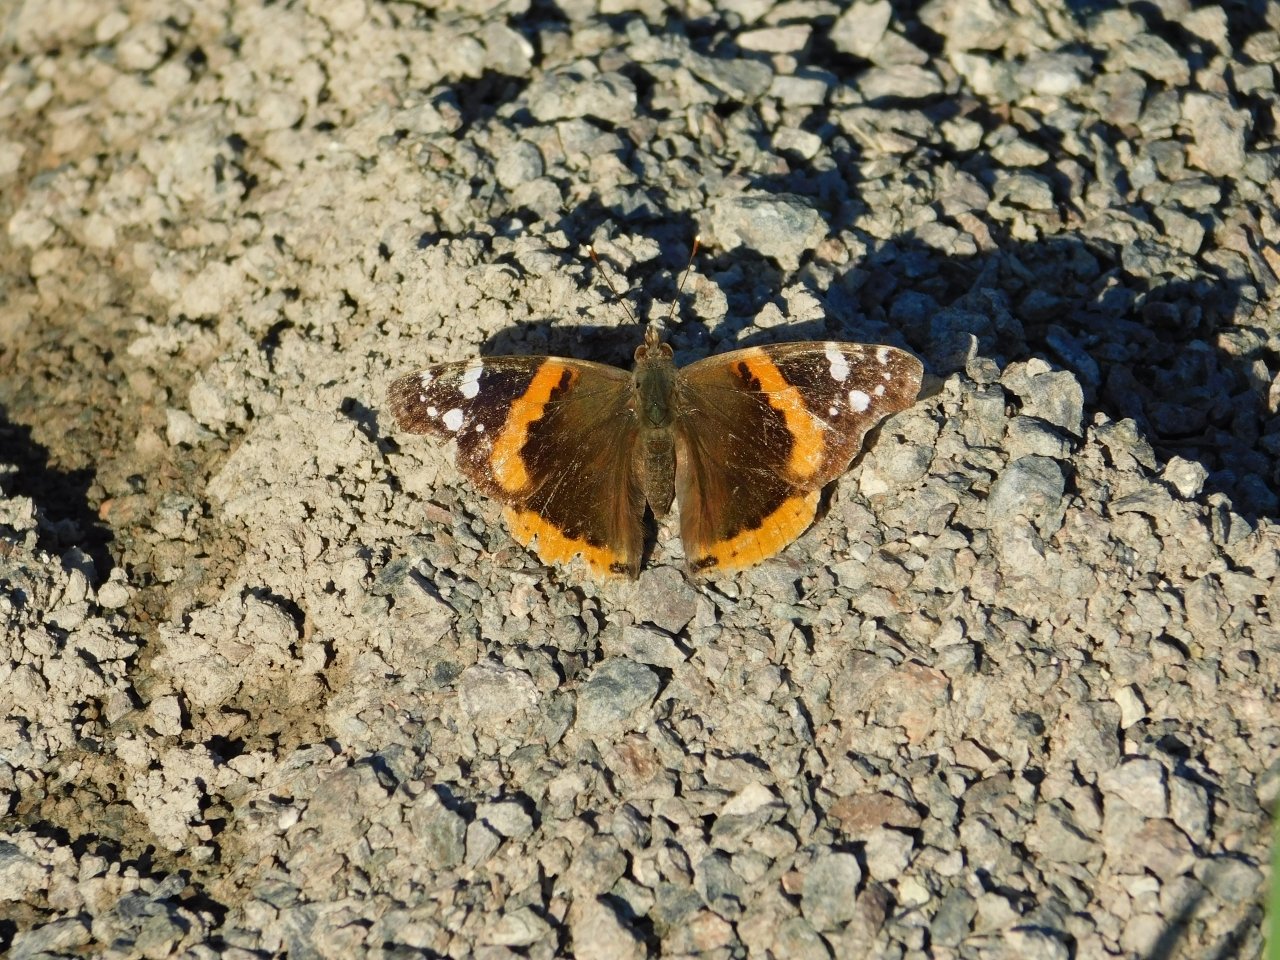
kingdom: Animalia
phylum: Arthropoda
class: Insecta
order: Lepidoptera
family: Nymphalidae
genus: Vanessa
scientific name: Vanessa atalanta
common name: Red Admiral
